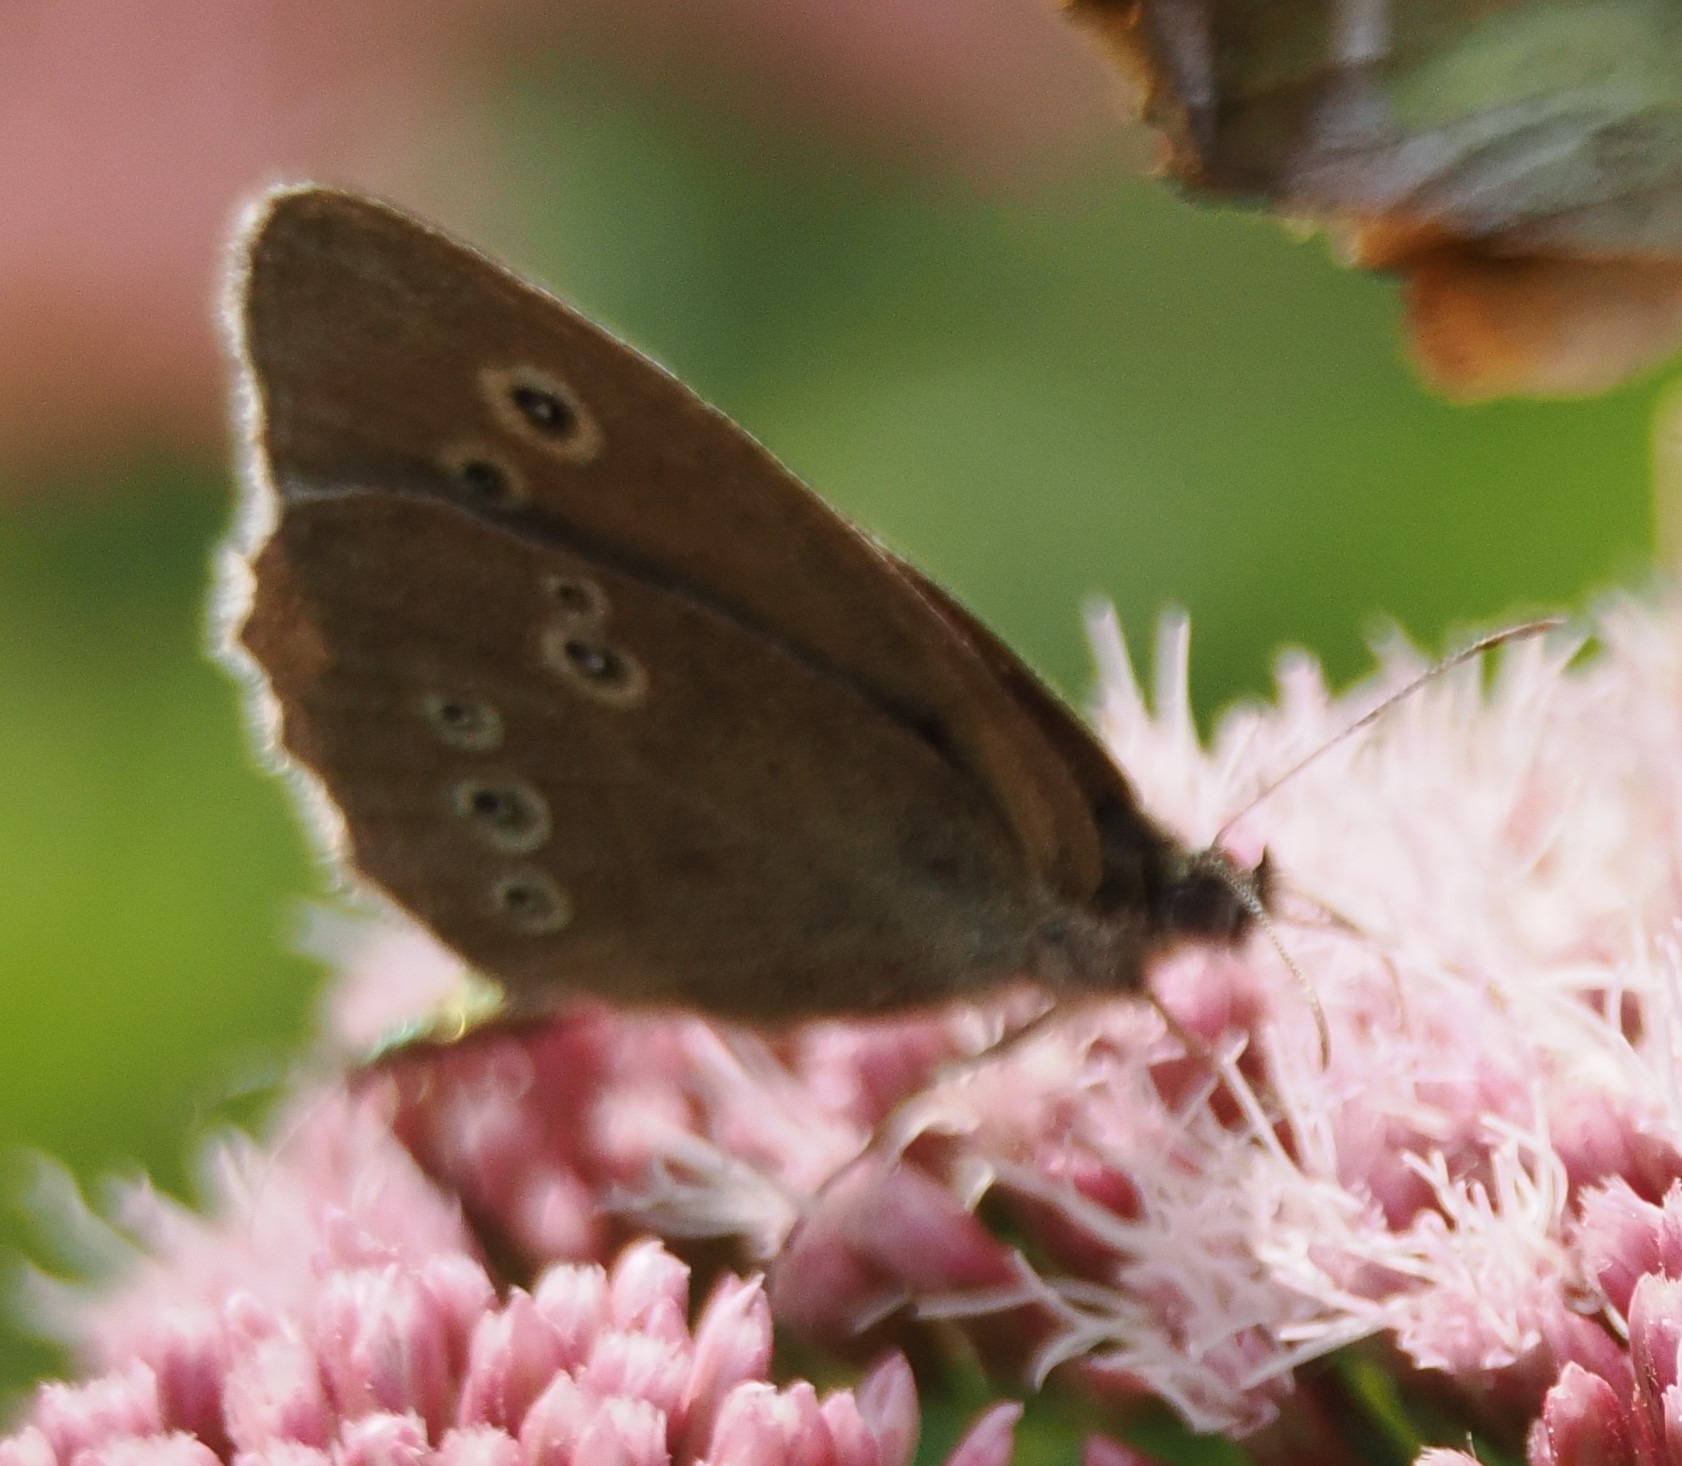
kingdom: Animalia
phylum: Arthropoda
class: Insecta
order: Lepidoptera
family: Nymphalidae
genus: Aphantopus
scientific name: Aphantopus hyperantus
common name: Engrandøje
